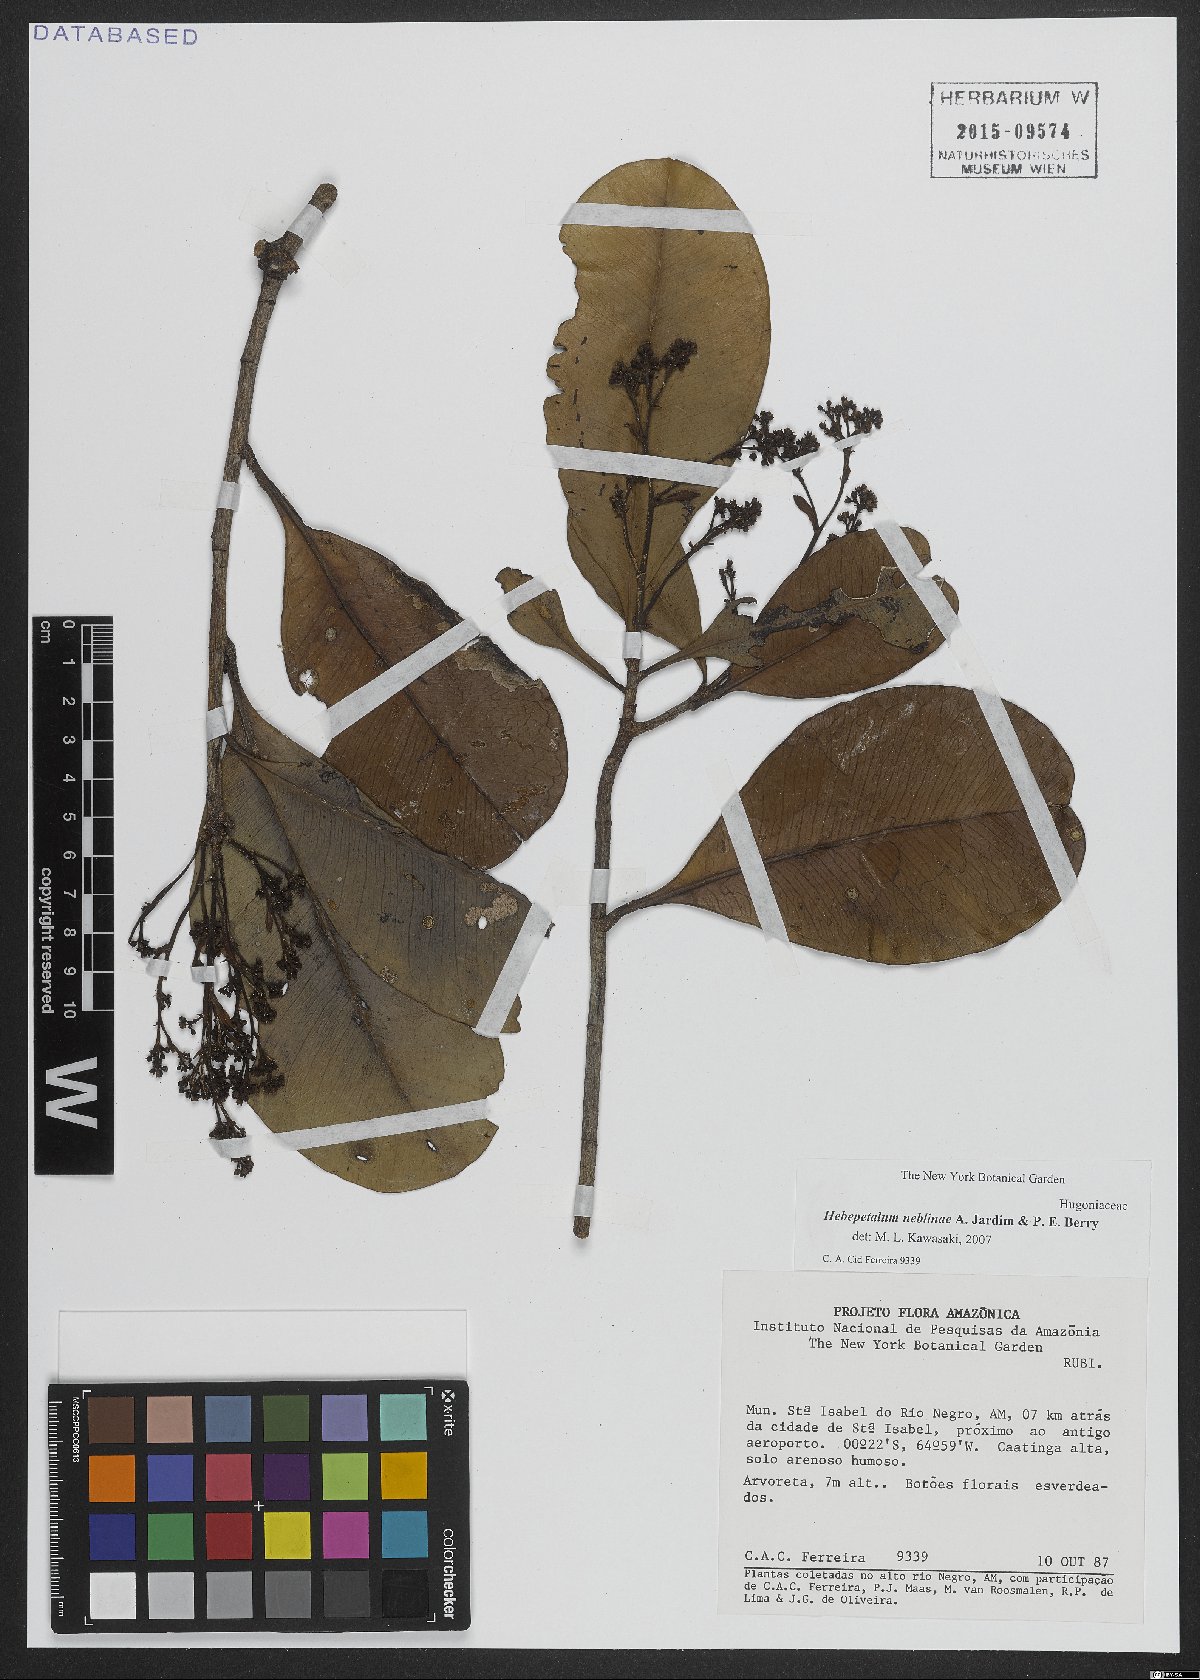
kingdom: Plantae
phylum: Tracheophyta
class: Magnoliopsida
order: Malpighiales
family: Linaceae
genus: Hebepetalum
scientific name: Hebepetalum neblinae
